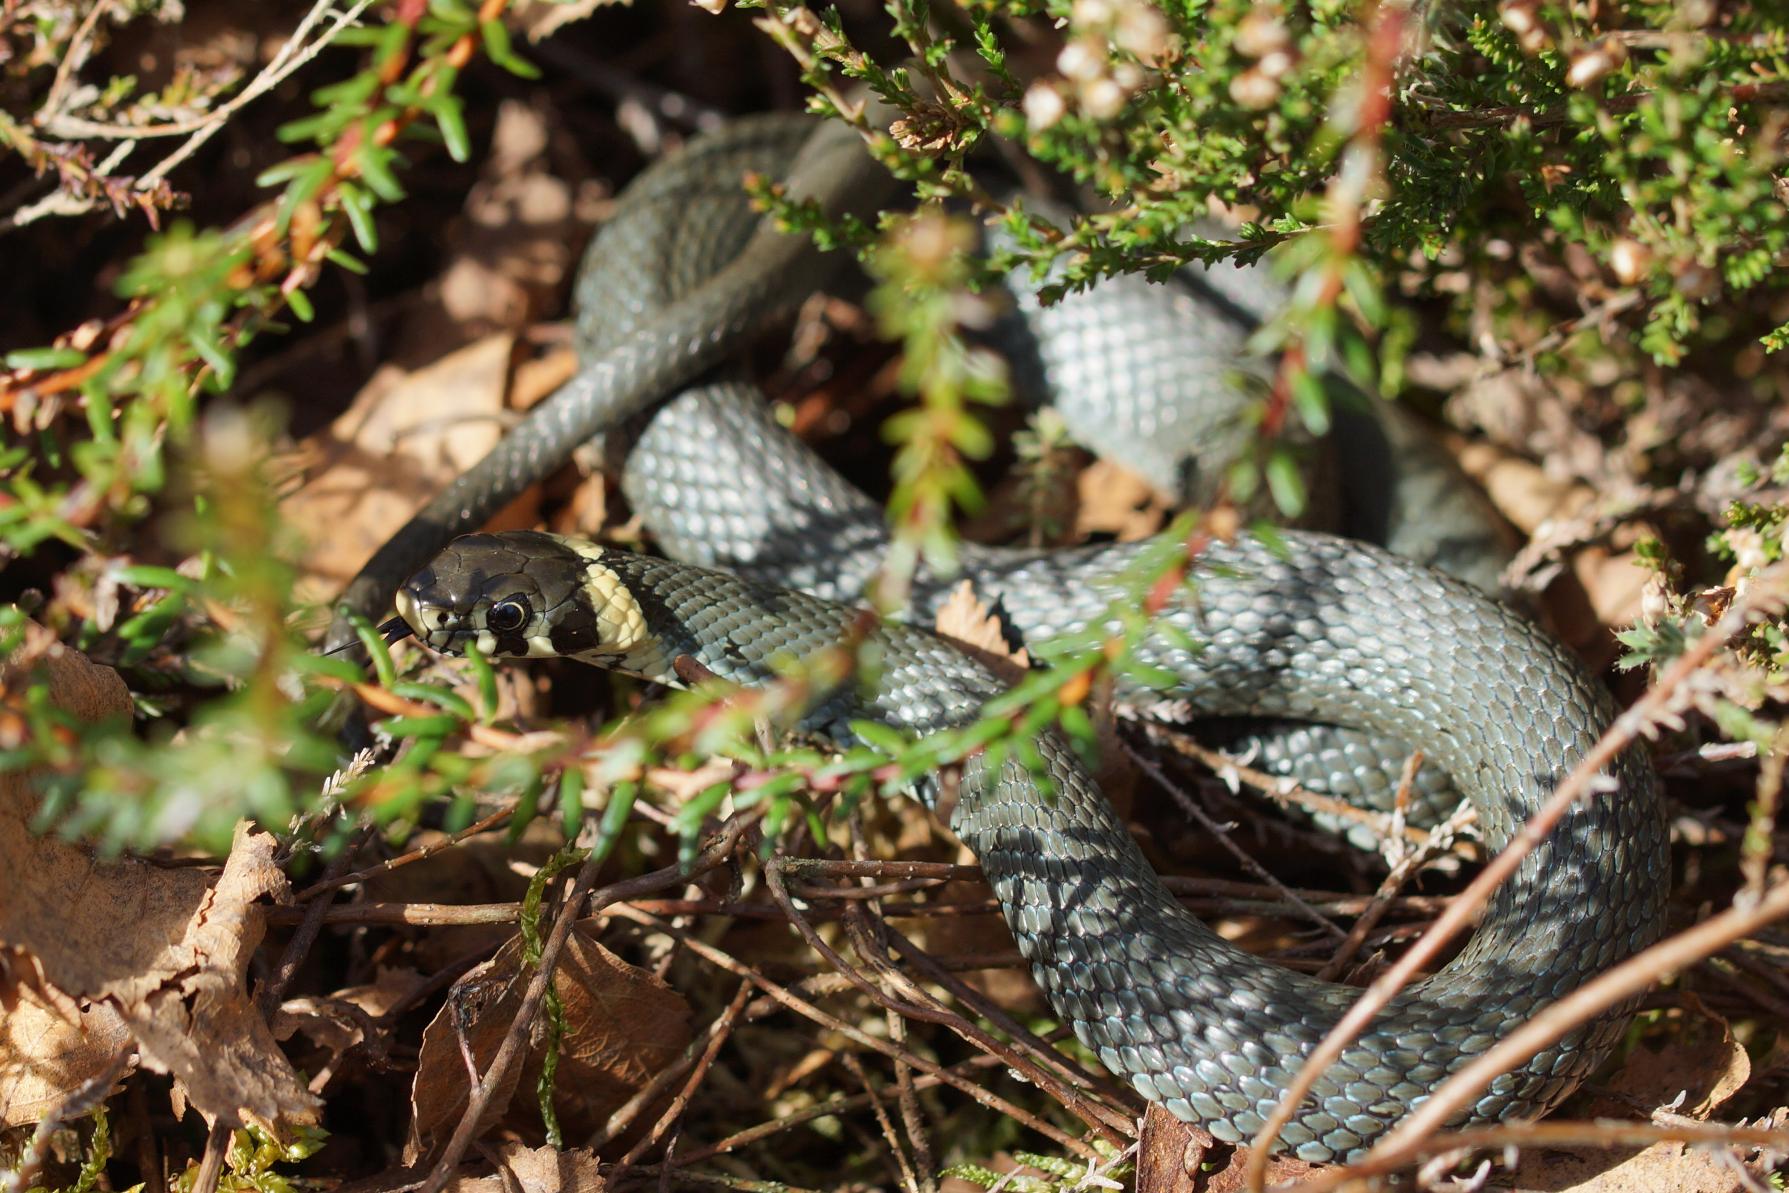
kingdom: Animalia
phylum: Chordata
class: Squamata
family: Colubridae
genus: Natrix
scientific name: Natrix natrix
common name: Snog
